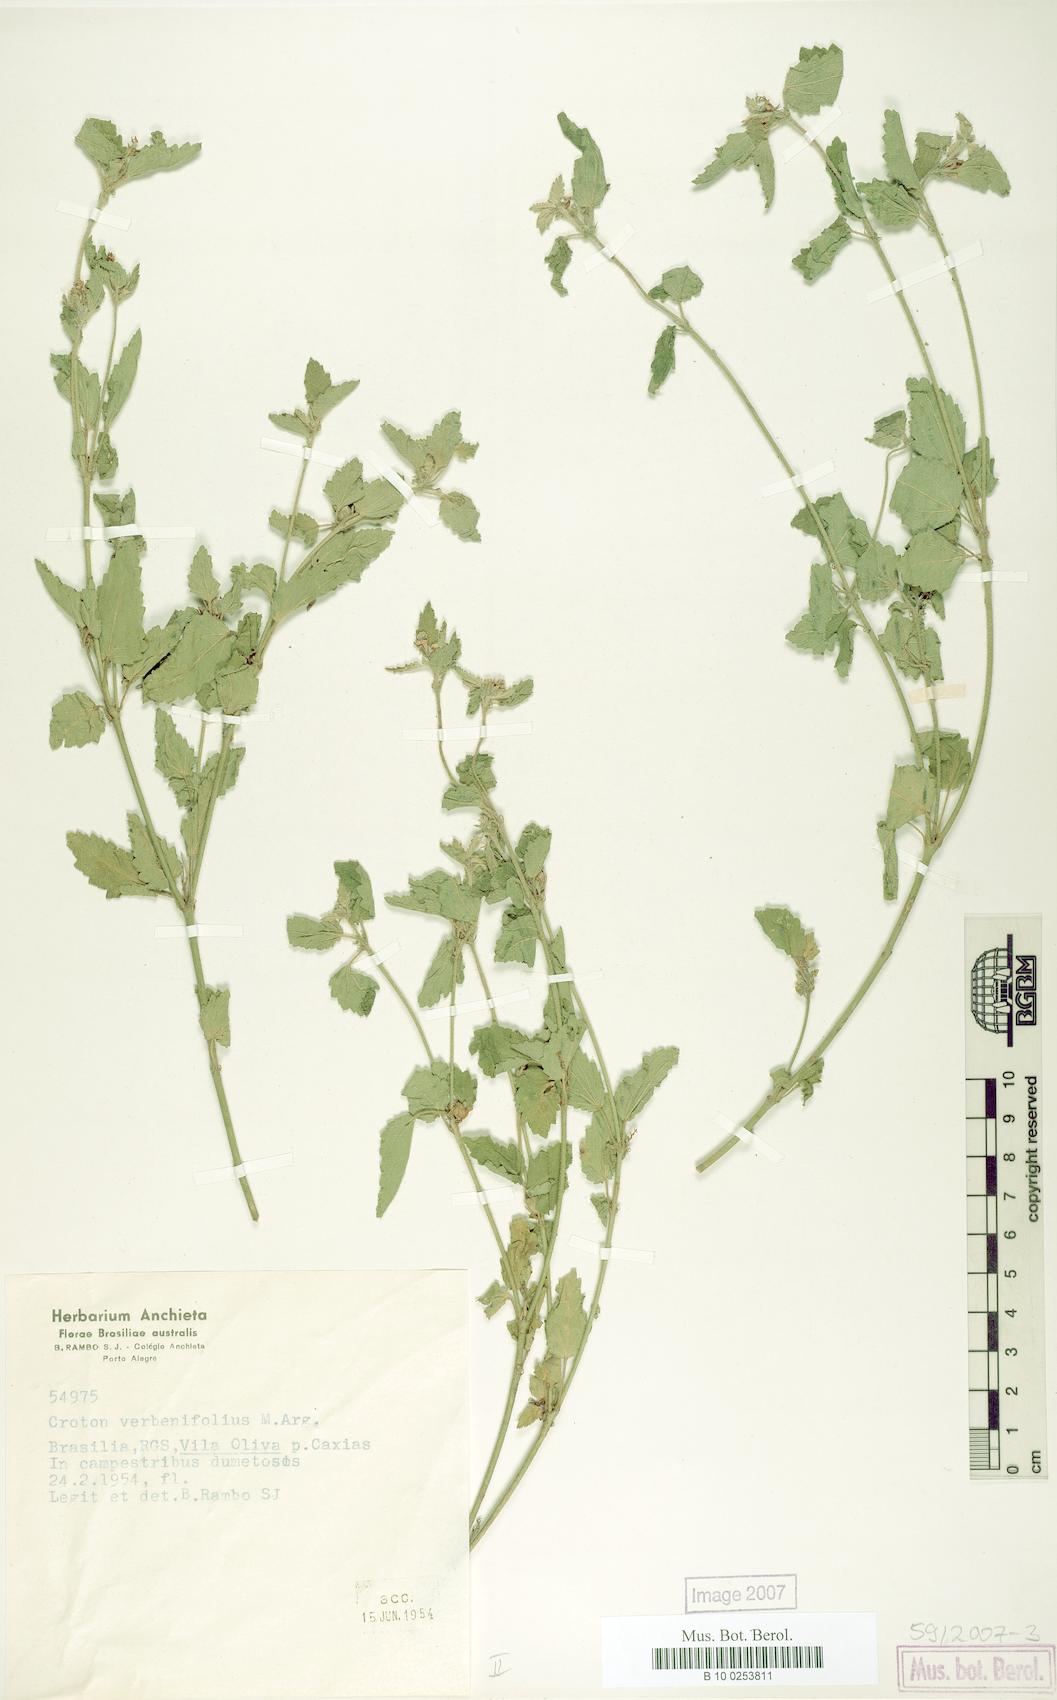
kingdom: Plantae
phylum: Tracheophyta
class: Magnoliopsida
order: Malpighiales
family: Euphorbiaceae
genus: Croton
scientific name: Croton verbenifolius
